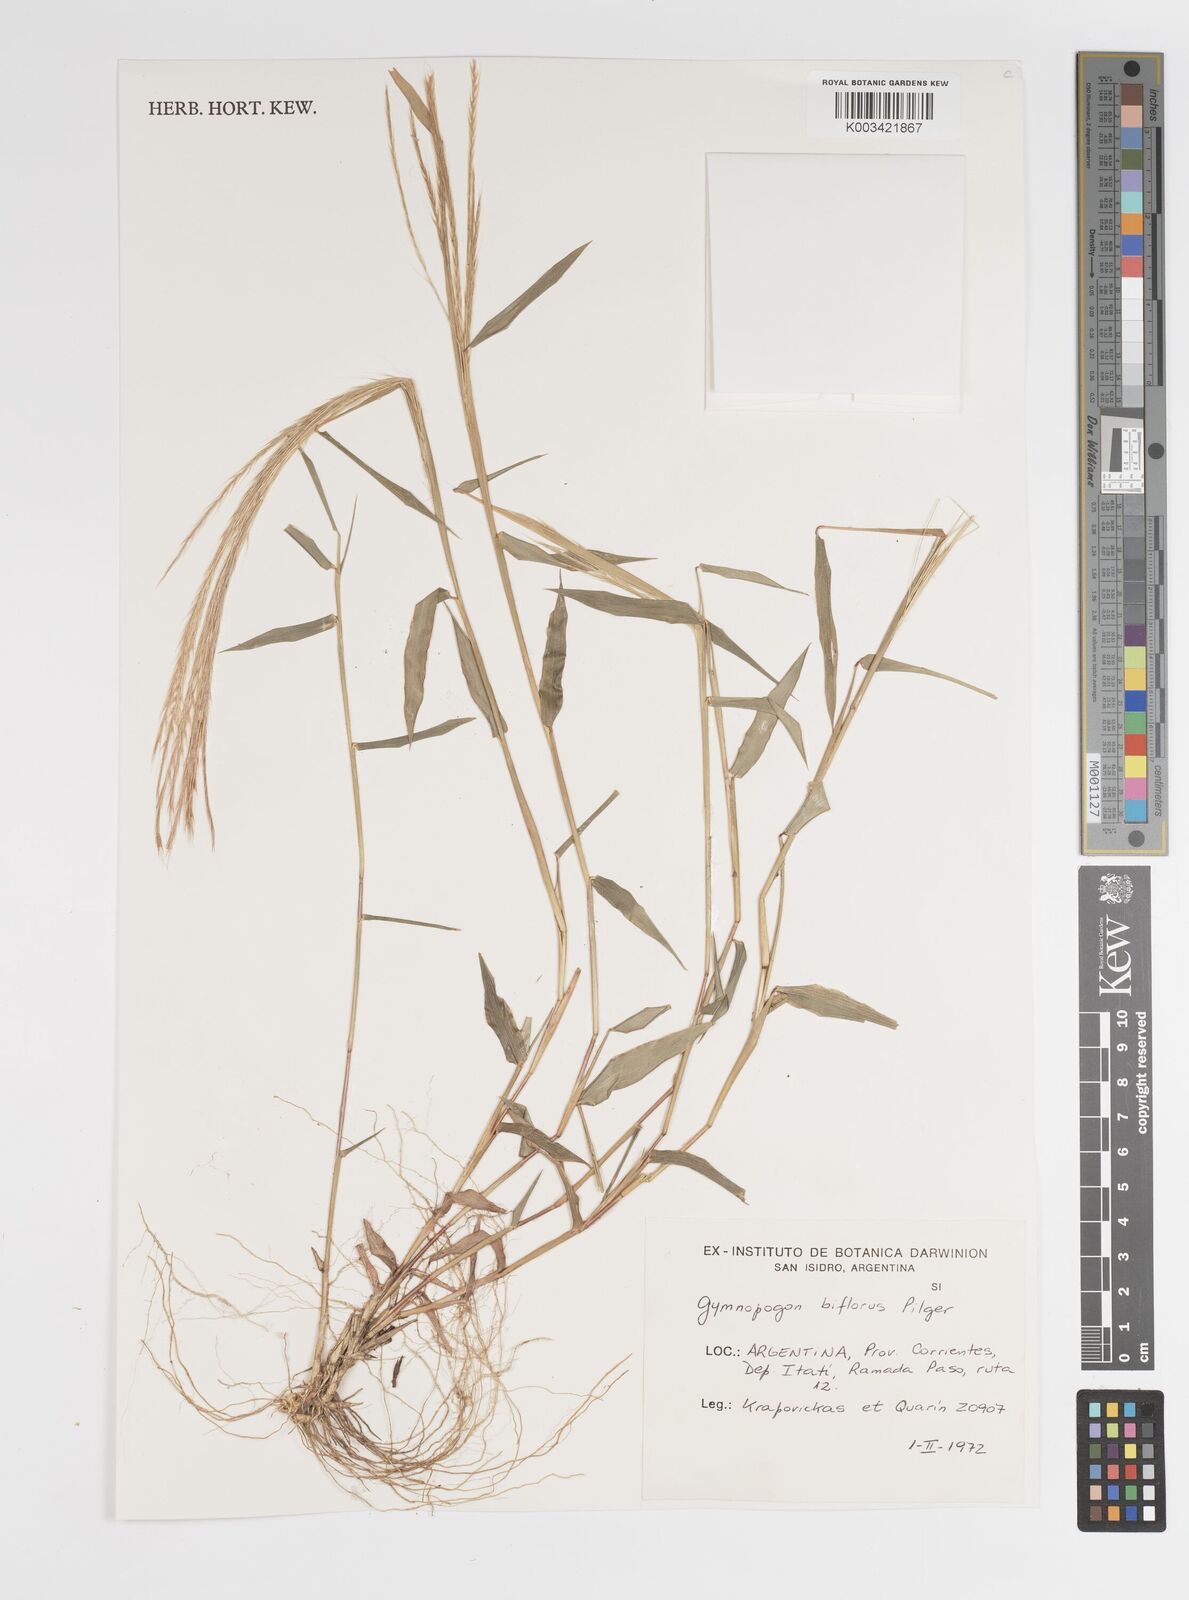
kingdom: Plantae
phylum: Tracheophyta
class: Liliopsida
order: Poales
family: Poaceae
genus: Gymnopogon
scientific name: Gymnopogon spicatus
